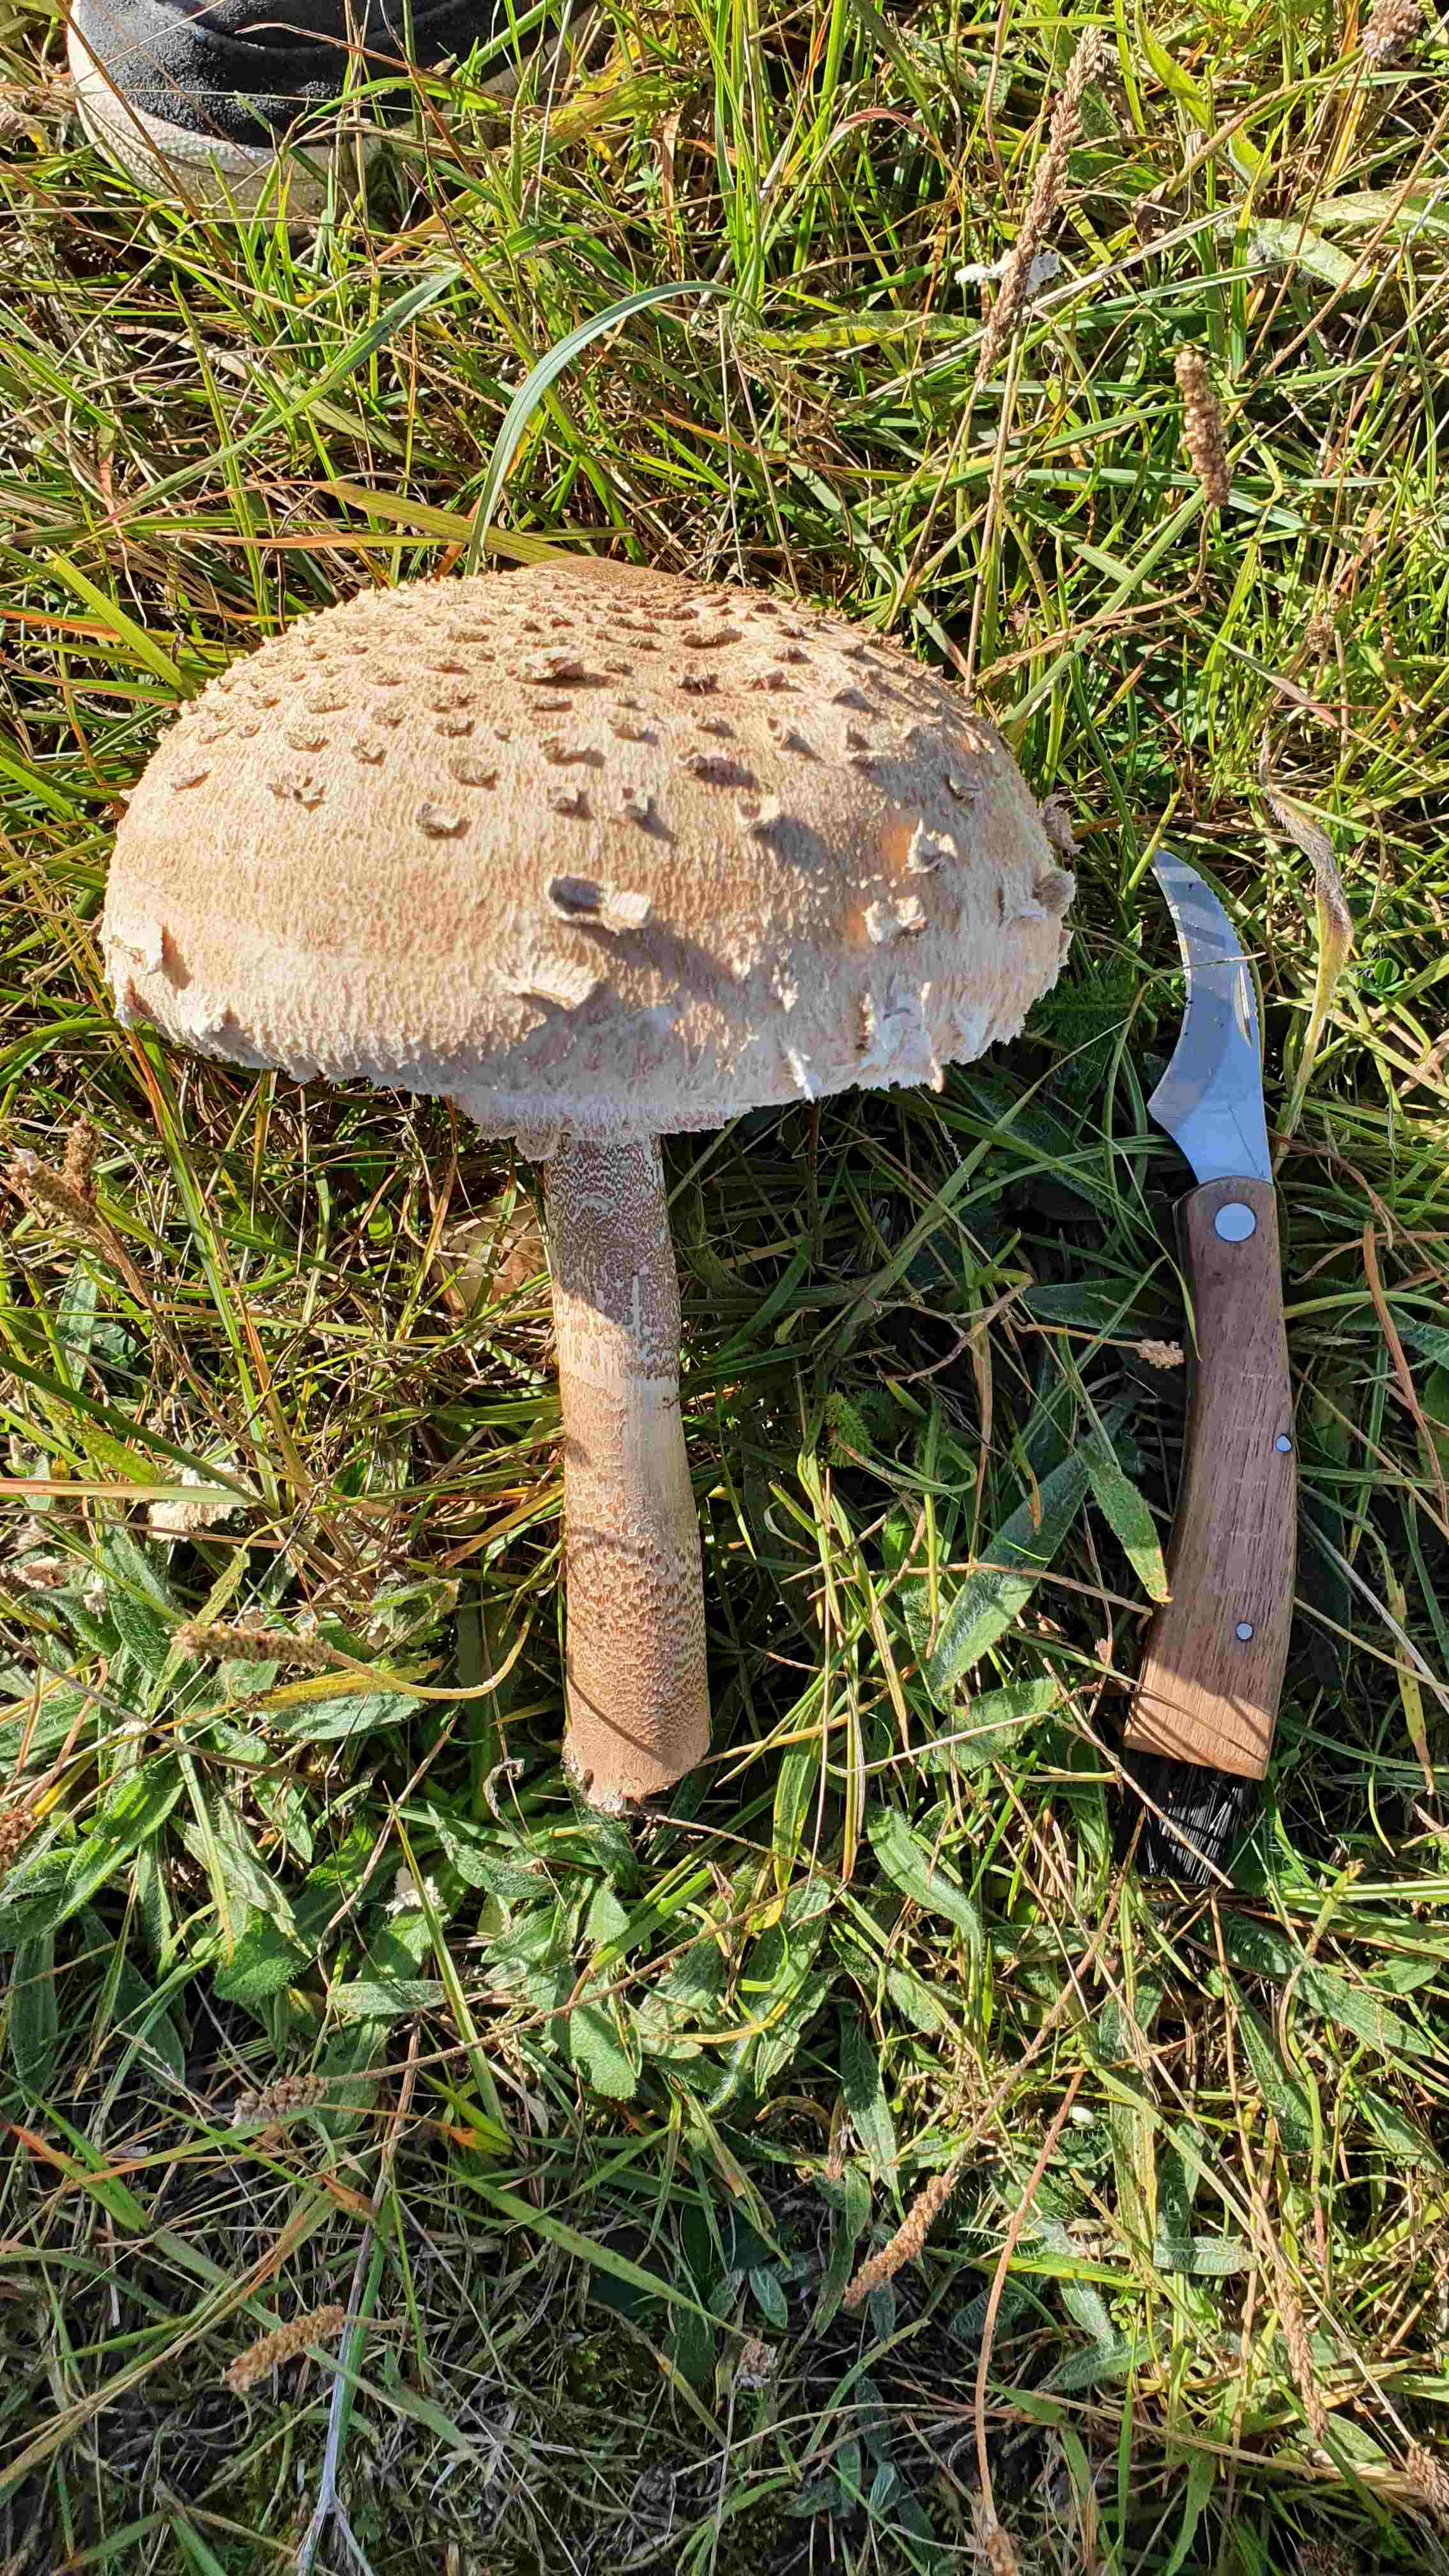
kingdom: Fungi
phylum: Basidiomycota
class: Agaricomycetes
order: Agaricales
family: Agaricaceae
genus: Macrolepiota
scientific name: Macrolepiota procera
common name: stor kæmpeparasolhat
